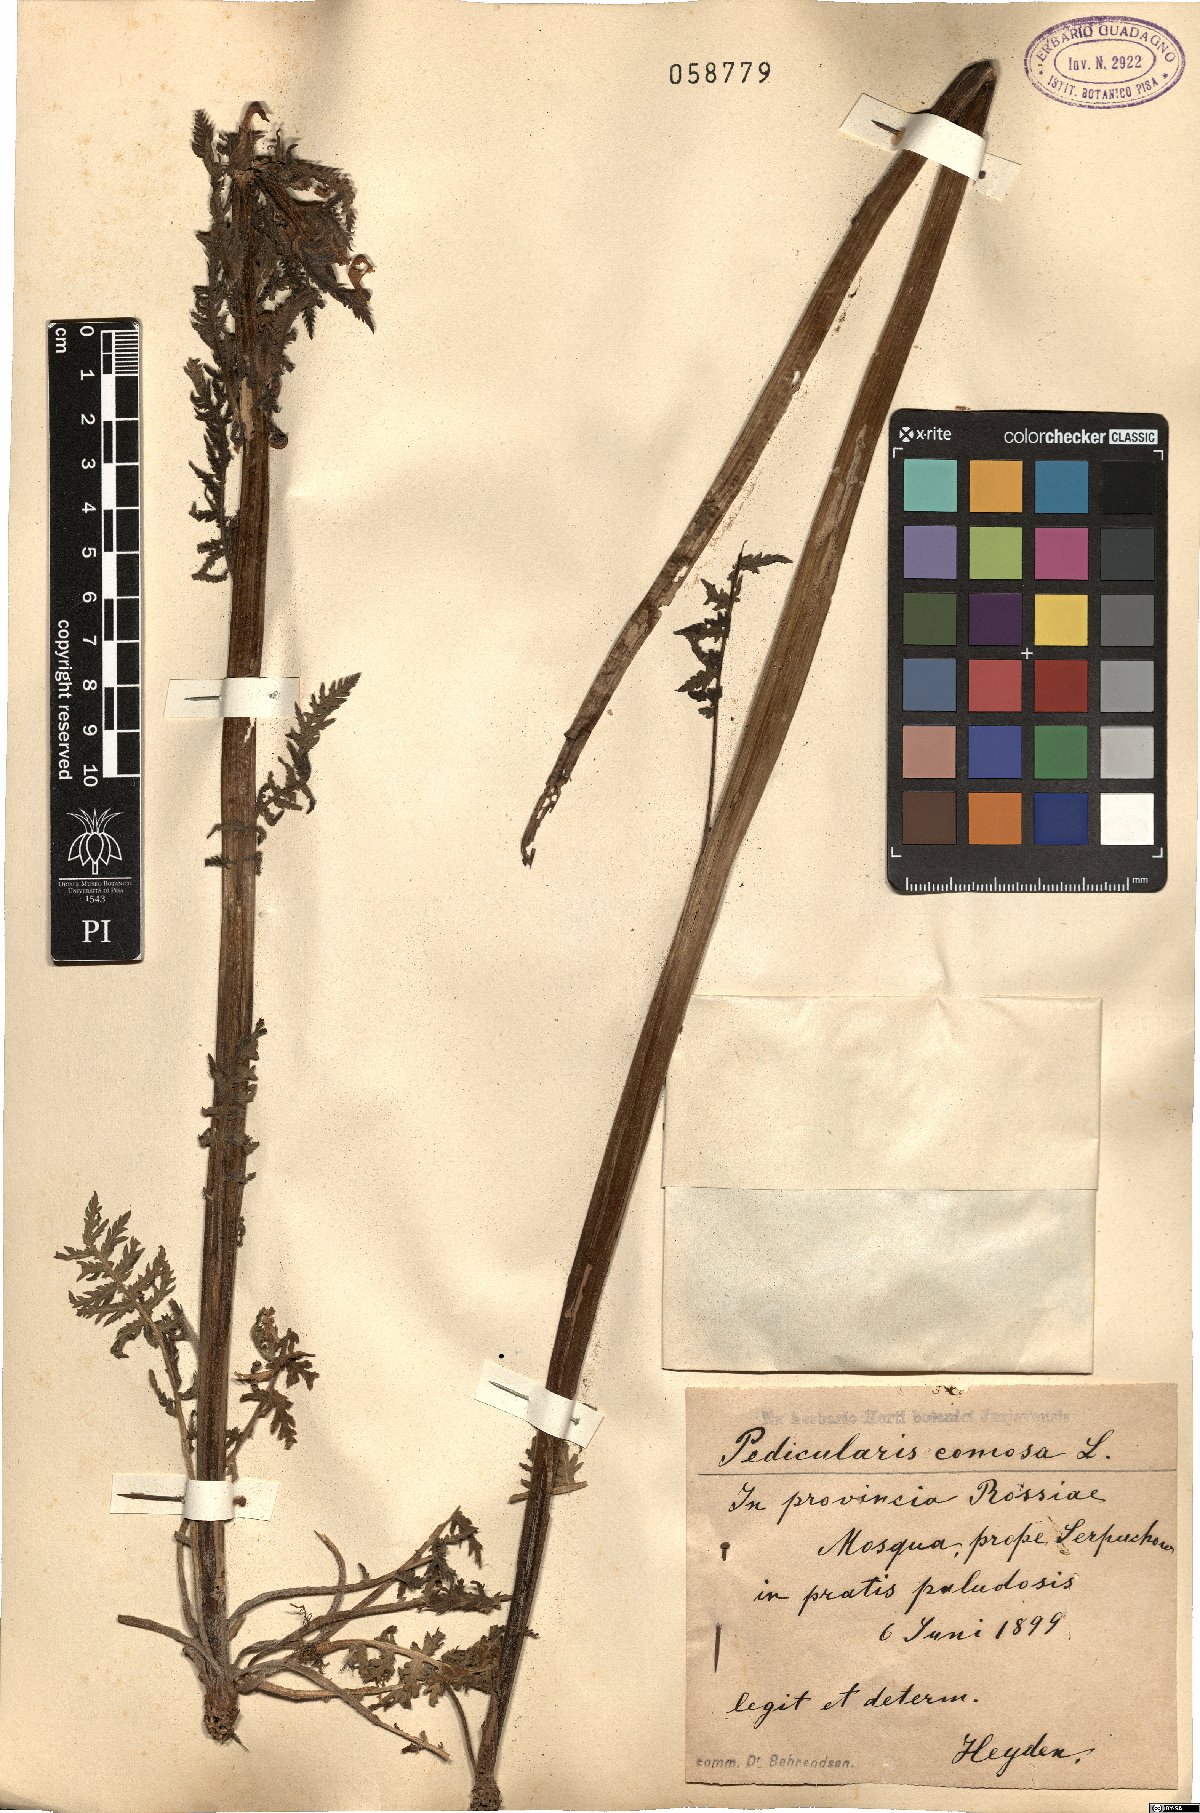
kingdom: Plantae
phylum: Tracheophyta
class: Magnoliopsida
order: Lamiales
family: Orobanchaceae
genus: Pedicularis
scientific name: Pedicularis comosa
